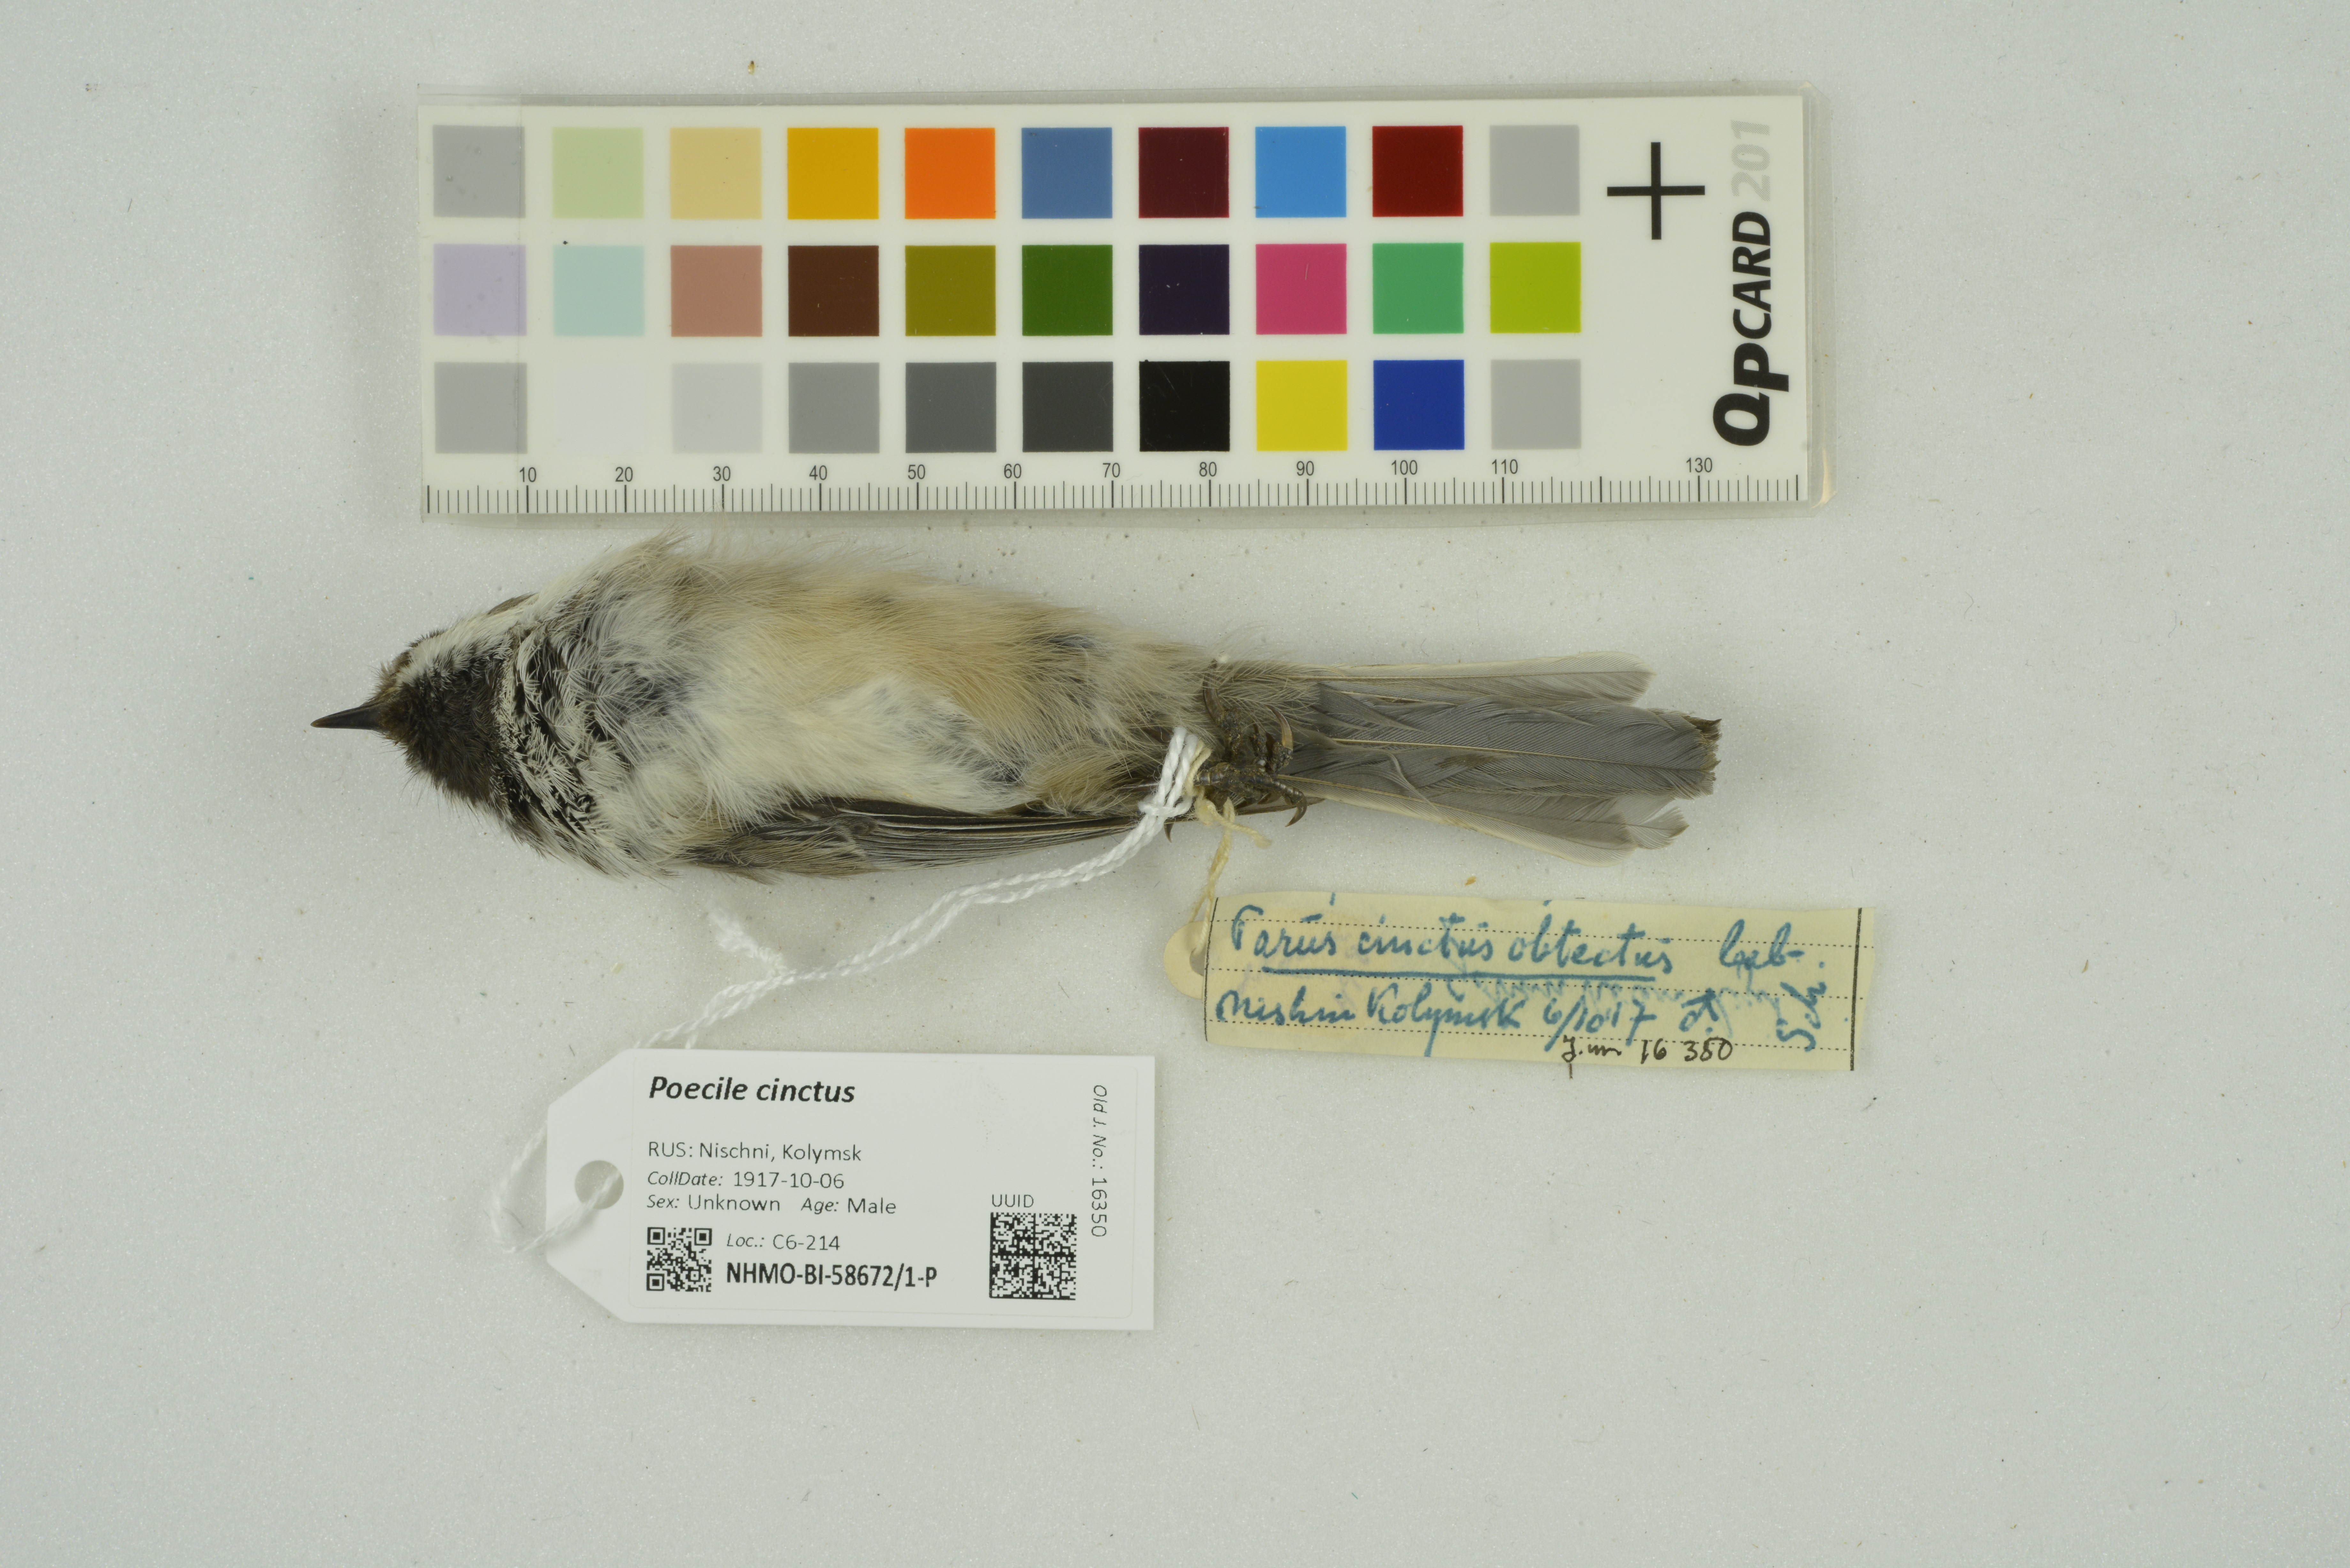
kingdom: Animalia
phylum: Chordata
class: Aves
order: Passeriformes
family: Paridae
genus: Poecile
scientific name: Poecile cinctus
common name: Gray-headed chickadee
